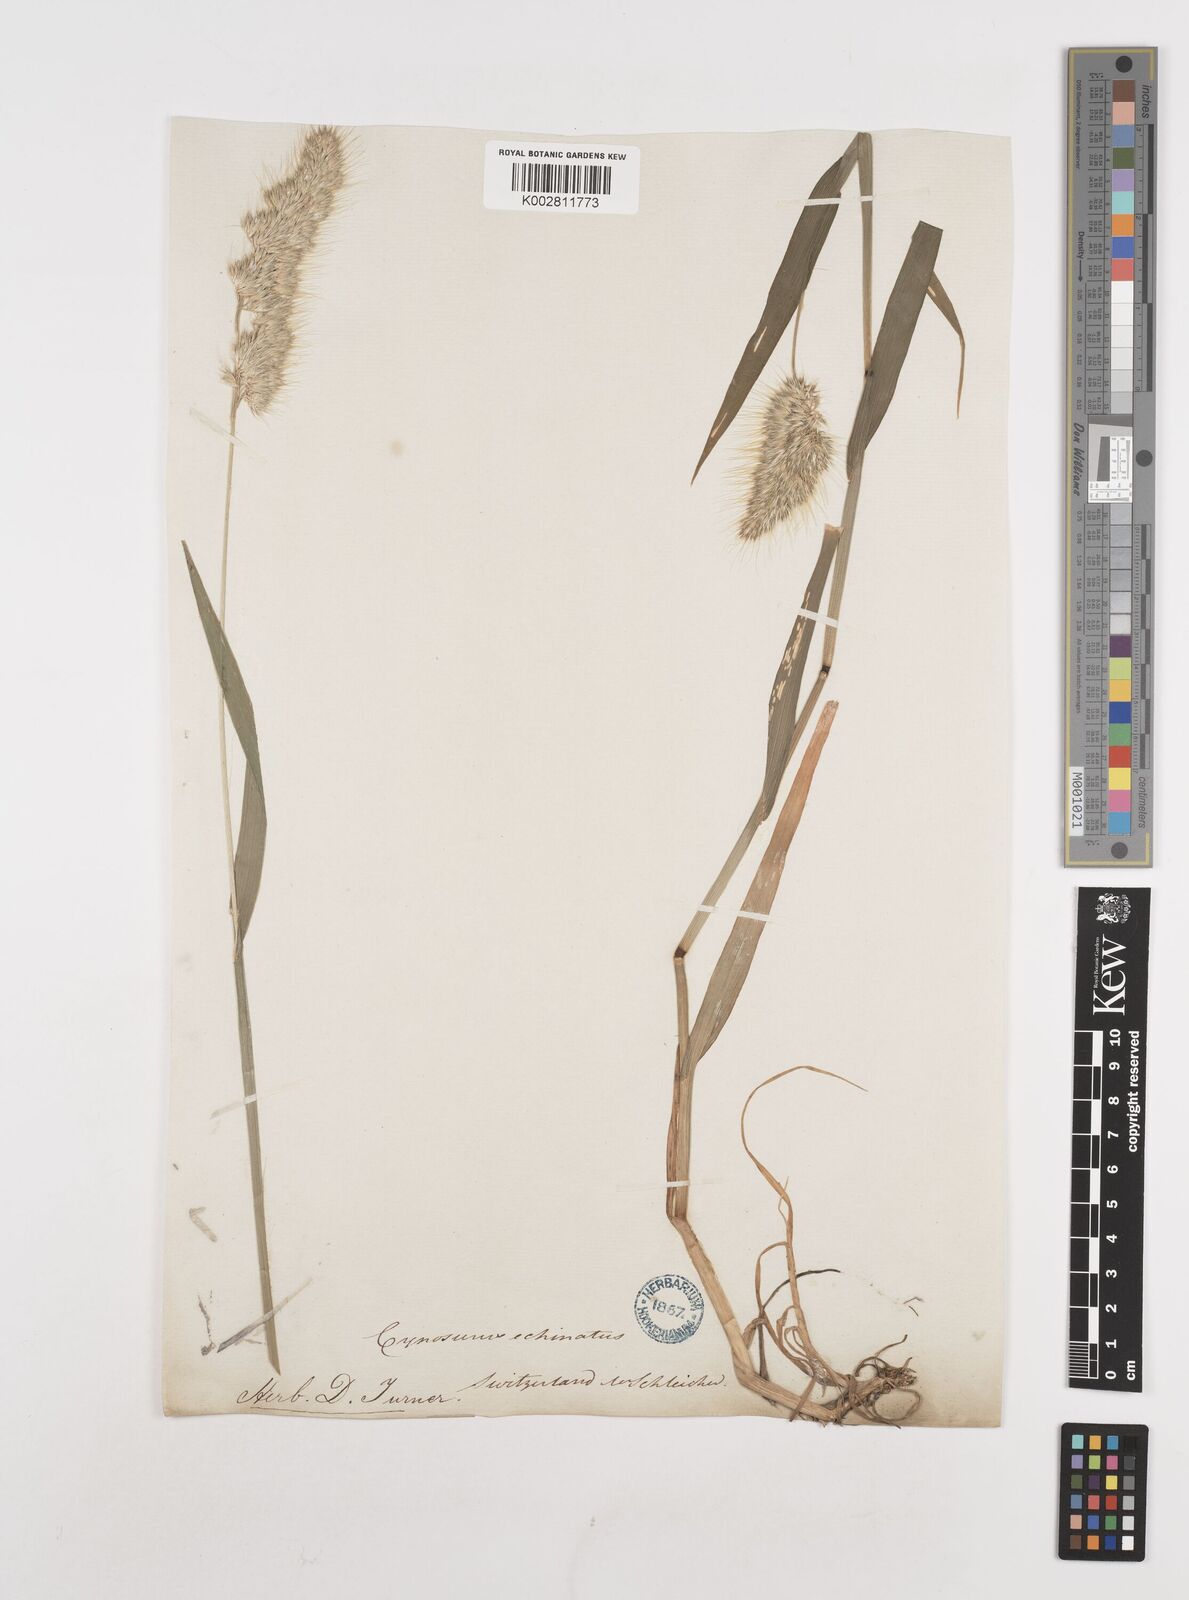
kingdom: Plantae
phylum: Tracheophyta
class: Liliopsida
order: Poales
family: Poaceae
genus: Cynosurus
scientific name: Cynosurus echinatus
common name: Rough dog's-tail
